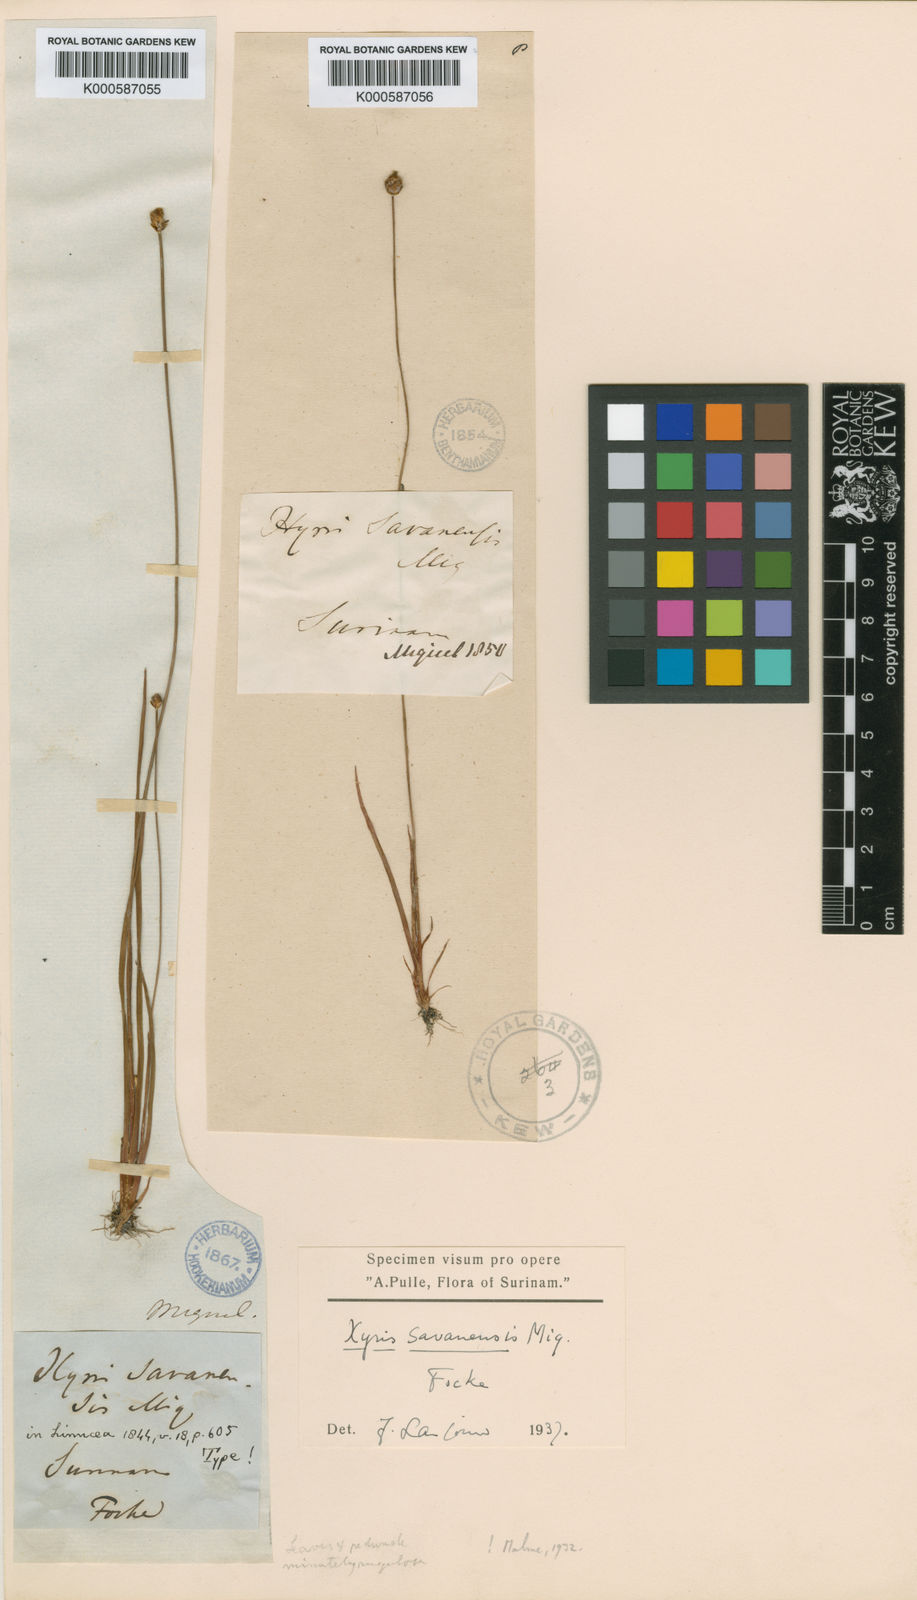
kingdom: Plantae
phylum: Tracheophyta
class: Liliopsida
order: Poales
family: Xyridaceae
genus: Xyris
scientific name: Xyris savanensis
